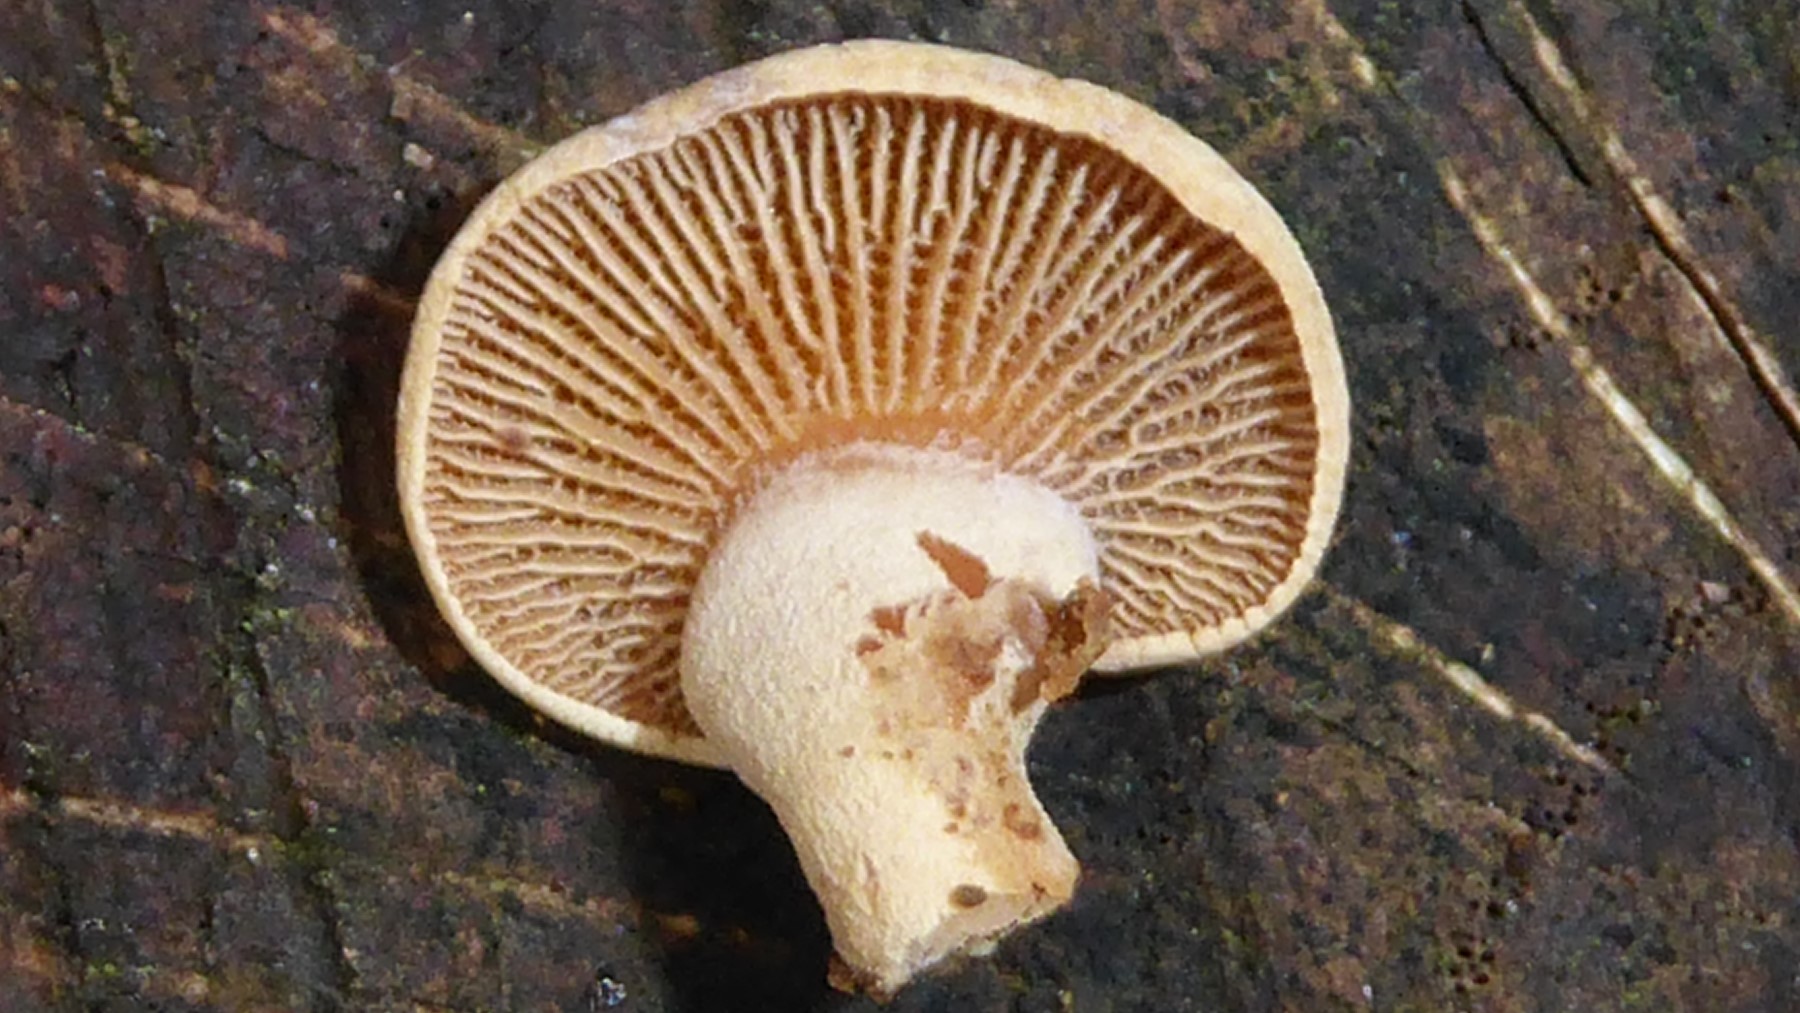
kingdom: Fungi
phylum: Basidiomycota
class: Agaricomycetes
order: Agaricales
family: Mycenaceae
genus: Panellus
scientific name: Panellus stipticus
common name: kliddet epaulethat
